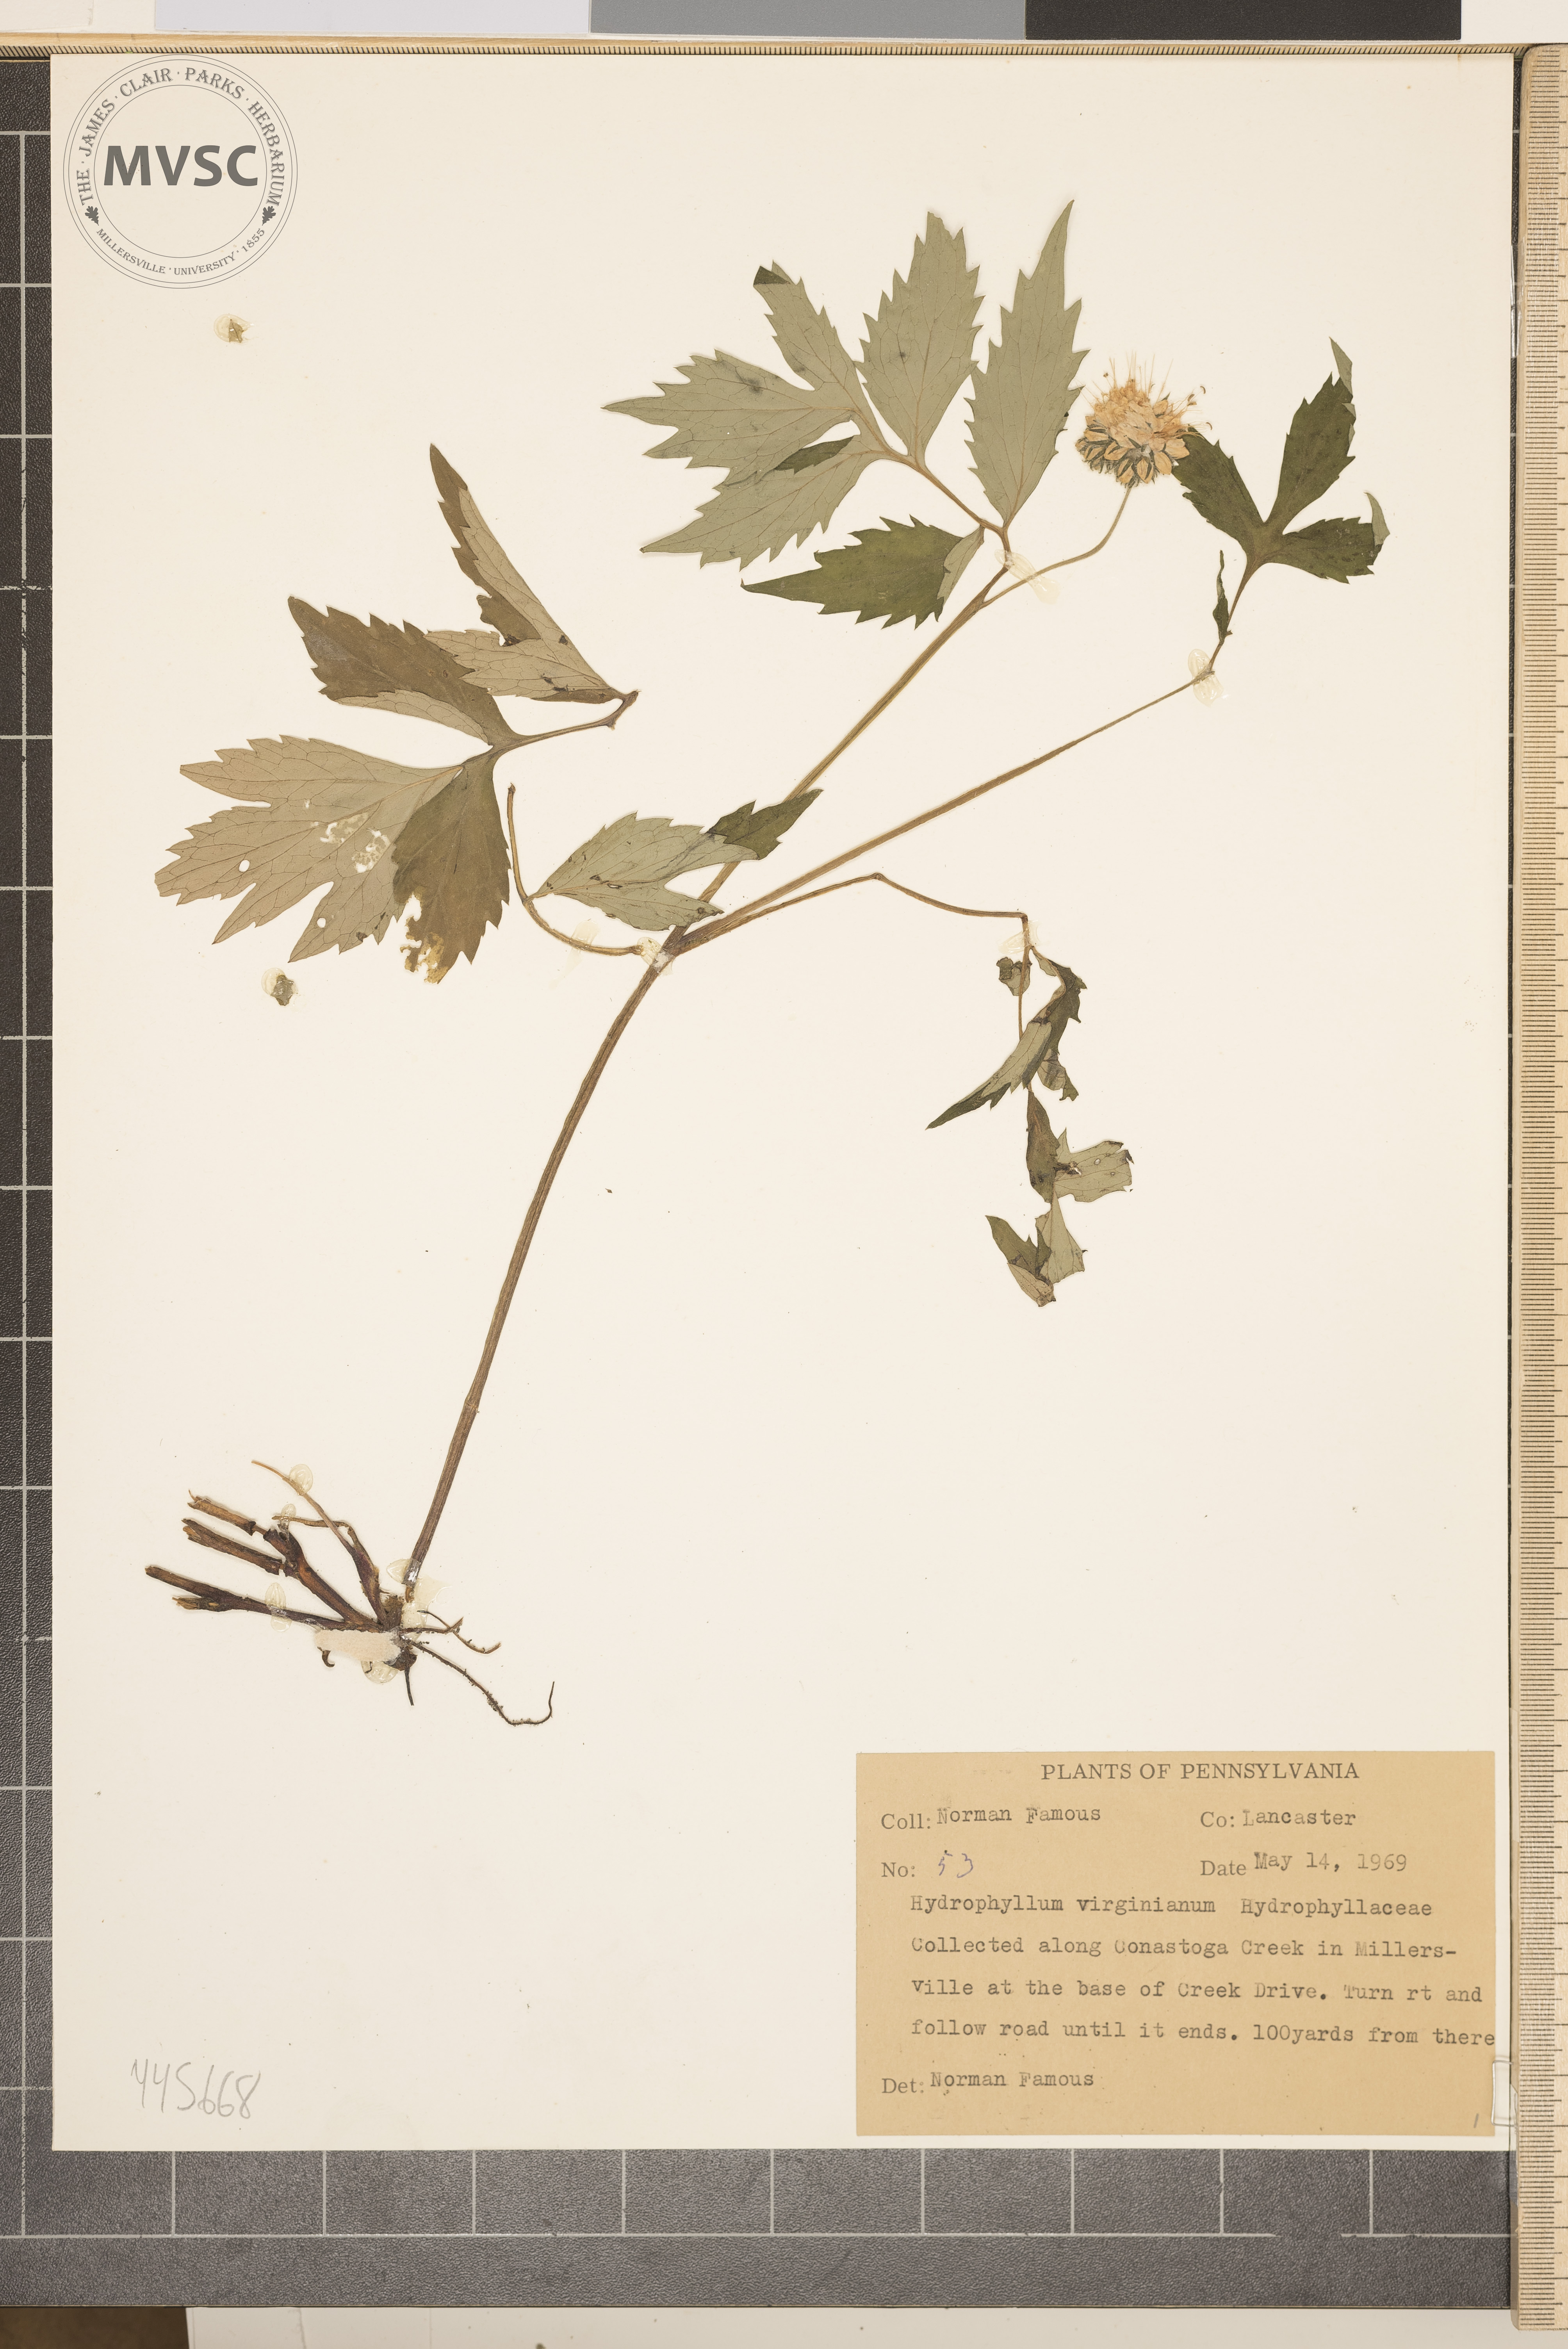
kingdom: Plantae
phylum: Tracheophyta
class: Magnoliopsida
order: Boraginales
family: Hydrophyllaceae
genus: Hydrophyllum
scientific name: Hydrophyllum virginianum
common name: Virginia waterleaf
